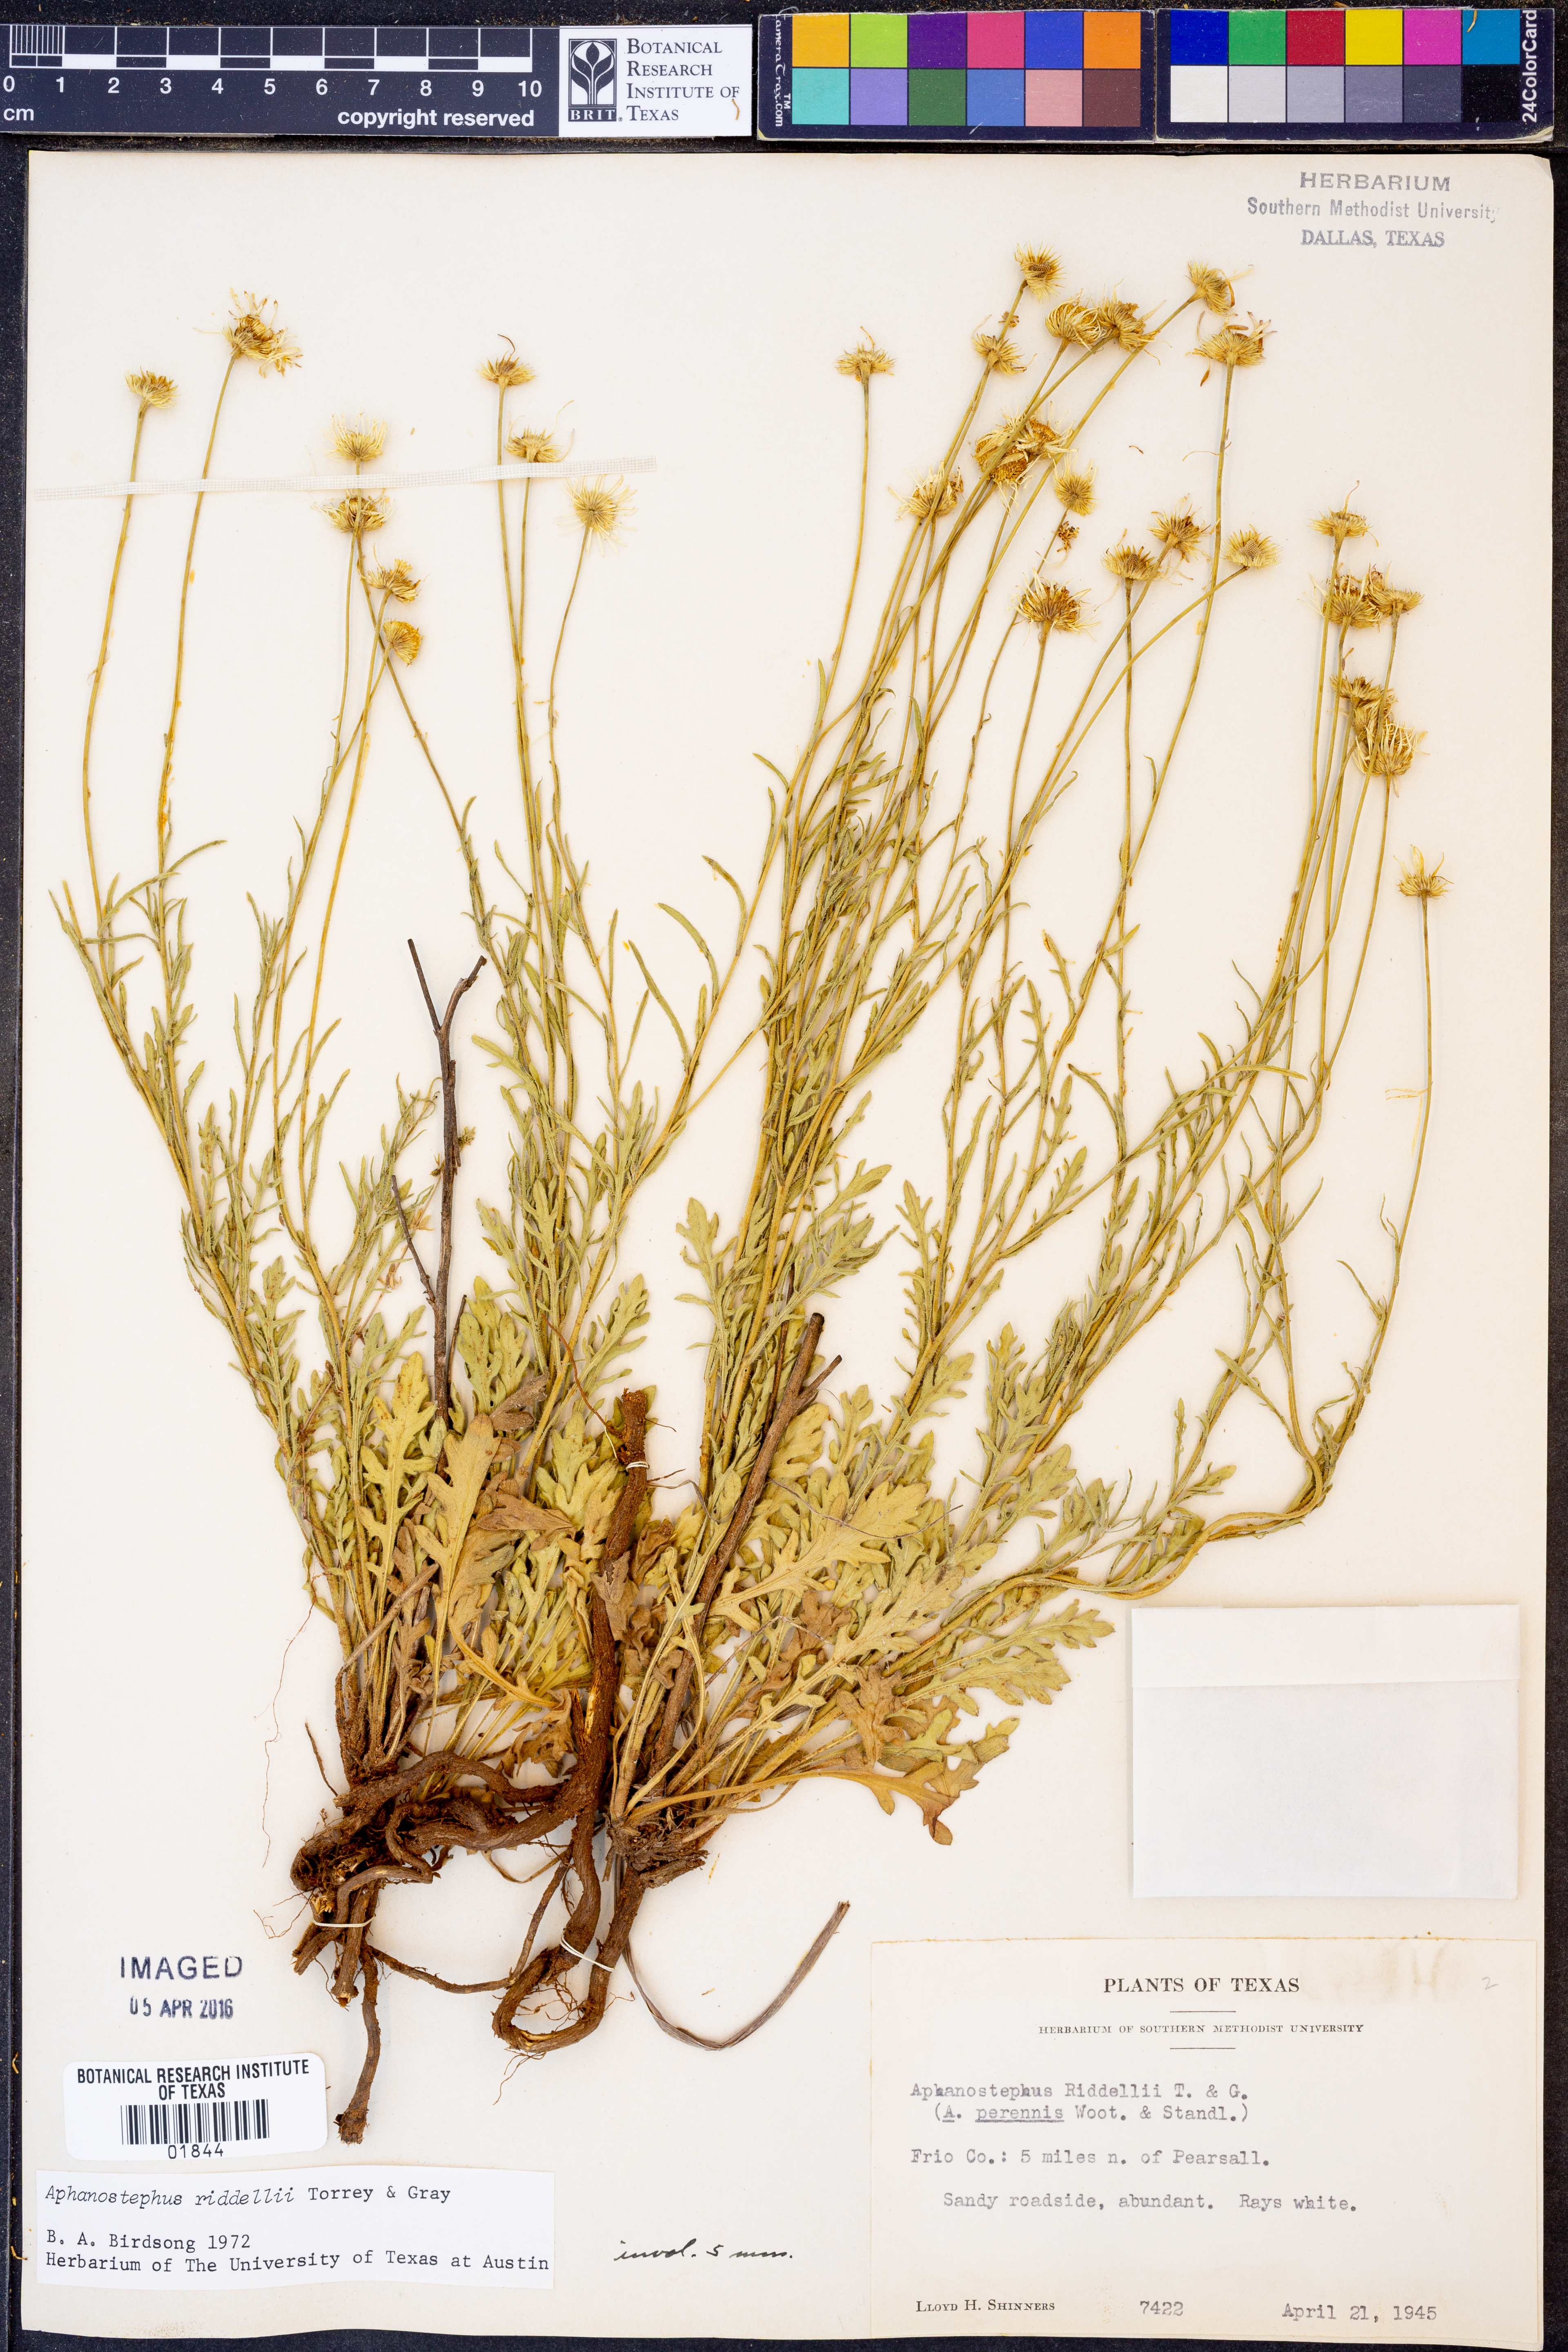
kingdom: Plantae
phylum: Tracheophyta
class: Magnoliopsida
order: Asterales
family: Asteraceae
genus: Aphanostephus
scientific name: Aphanostephus riddellii
